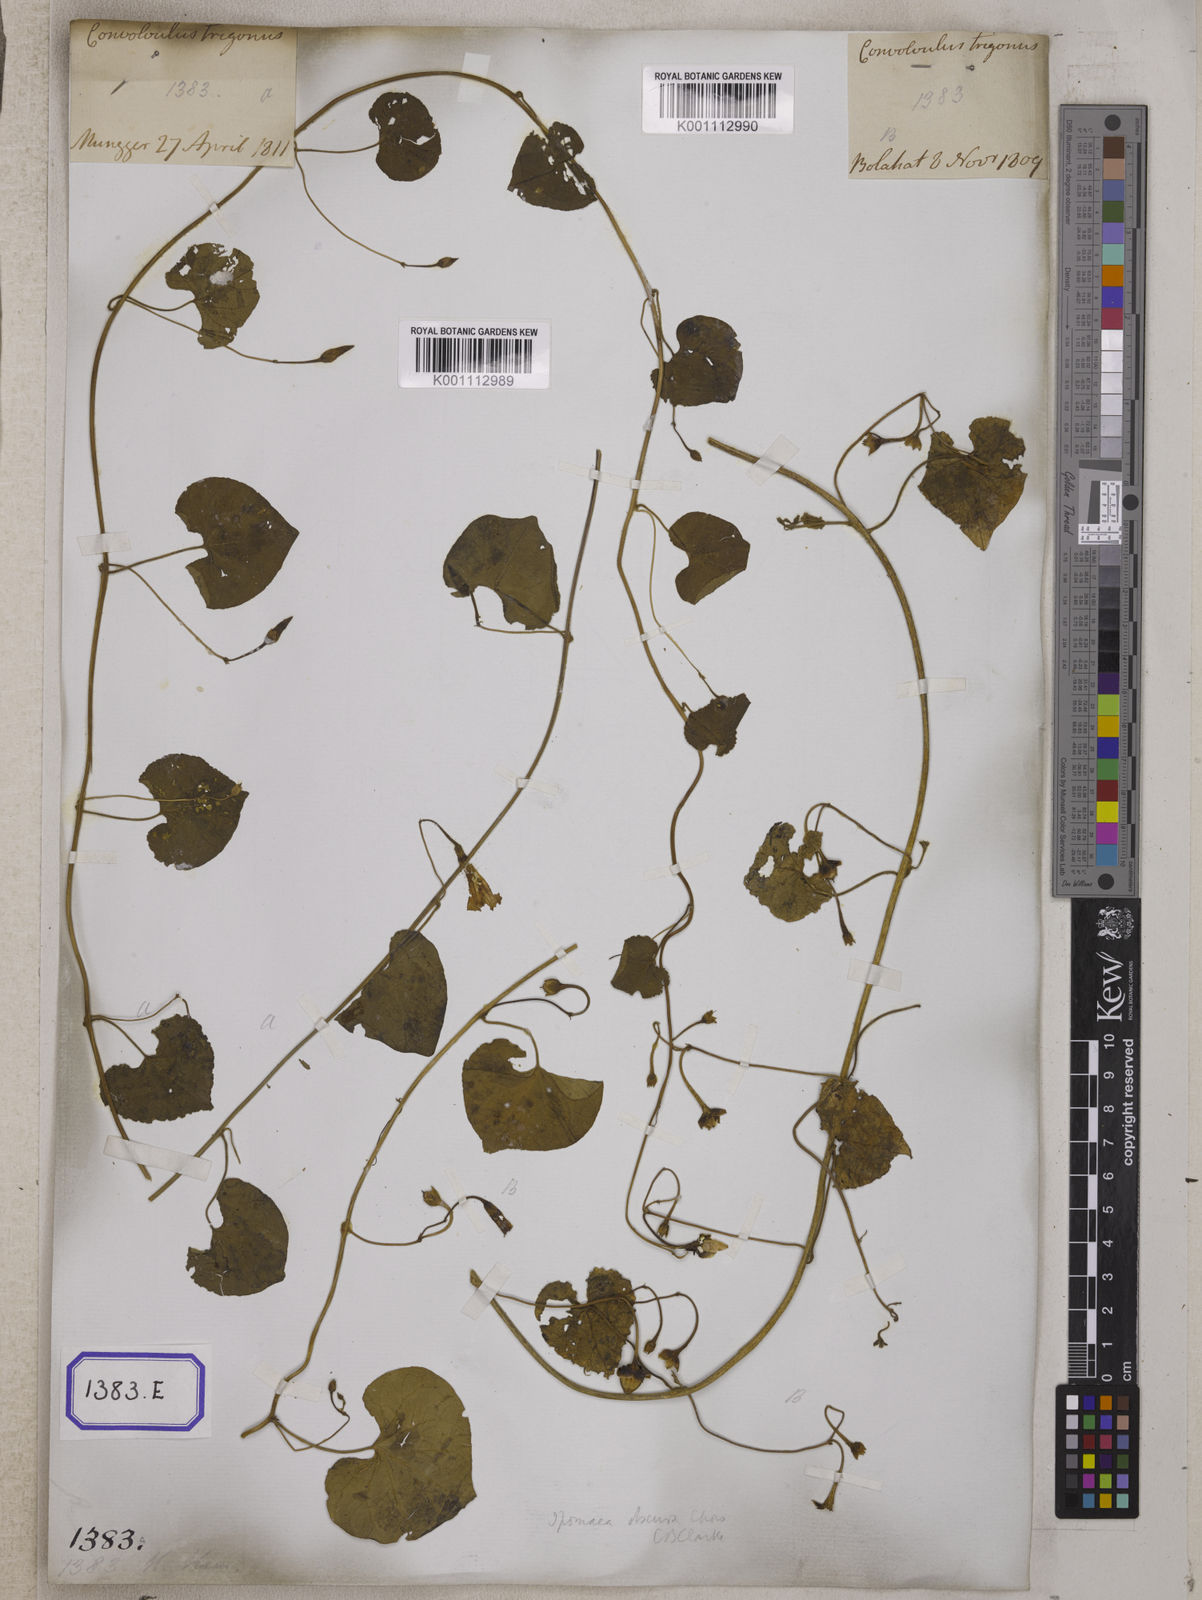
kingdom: Plantae
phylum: Tracheophyta
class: Magnoliopsida
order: Solanales
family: Convolvulaceae
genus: Convolvulus
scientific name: Convolvulus
